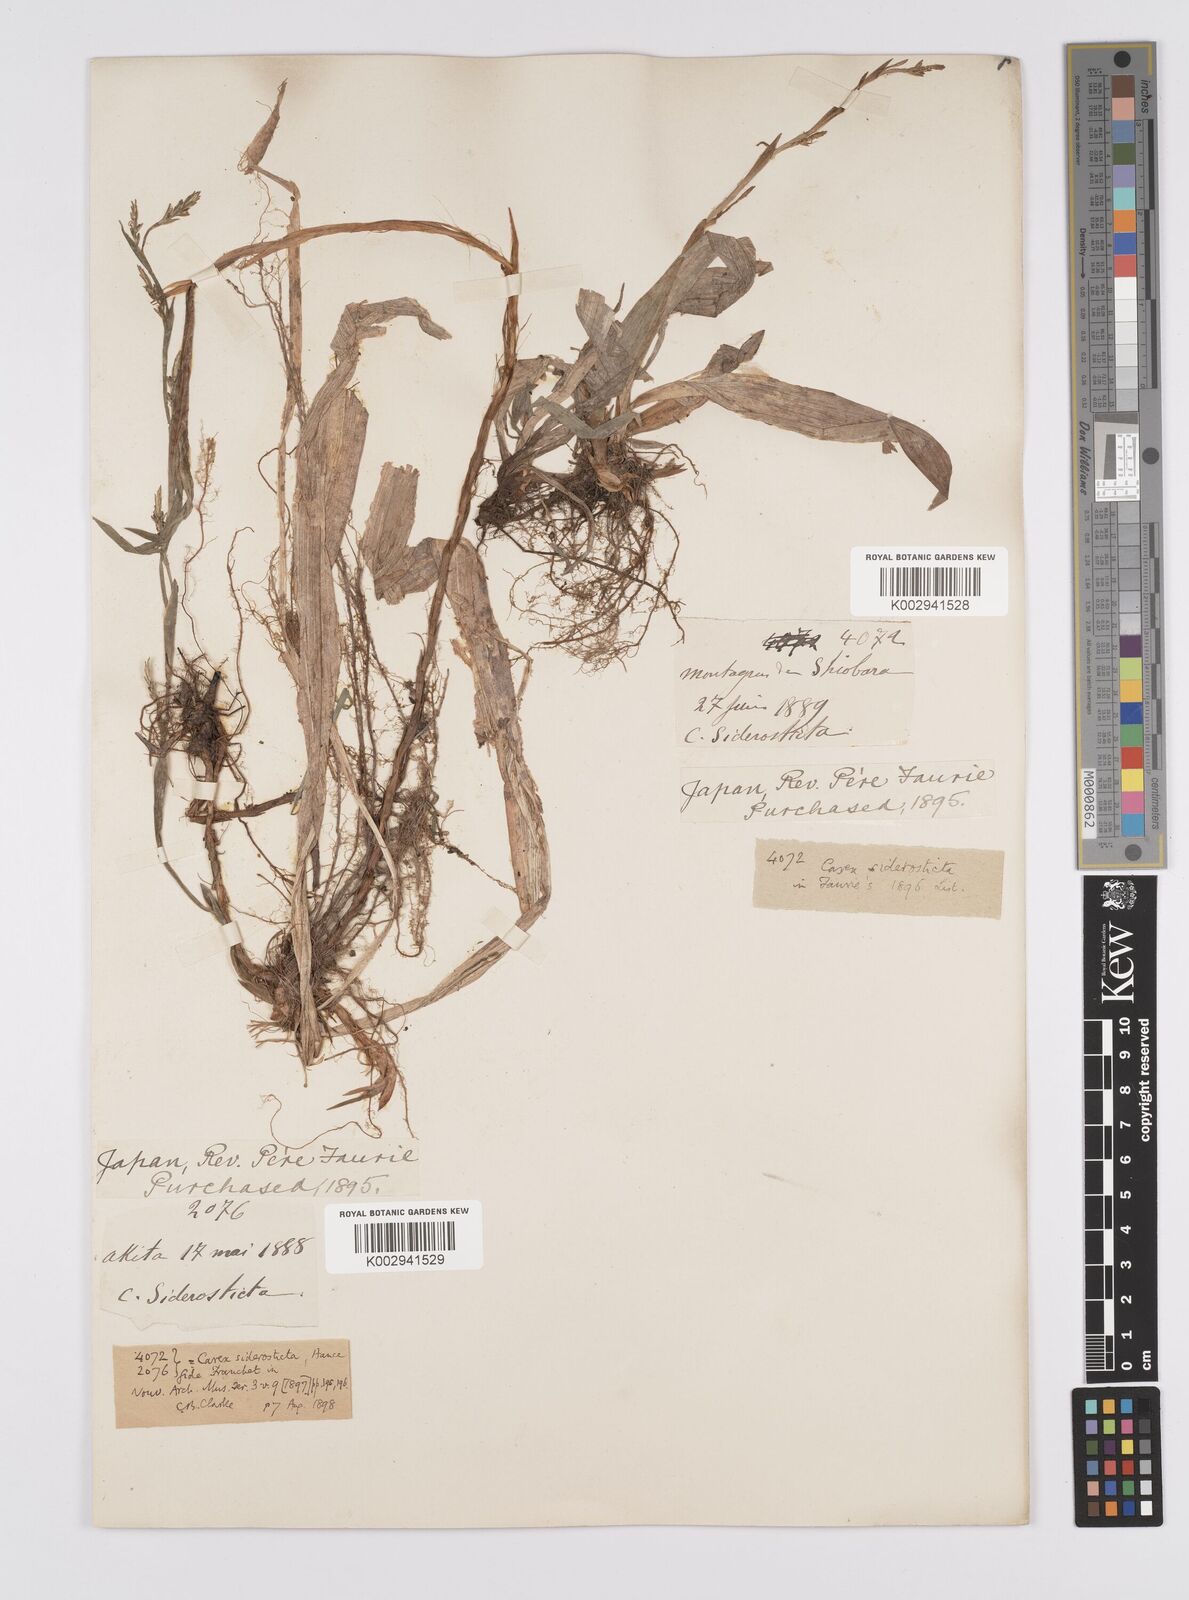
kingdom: Plantae
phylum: Tracheophyta
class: Liliopsida
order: Poales
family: Cyperaceae
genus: Carex
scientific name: Carex siderosticta
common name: Broadleaf sedge
